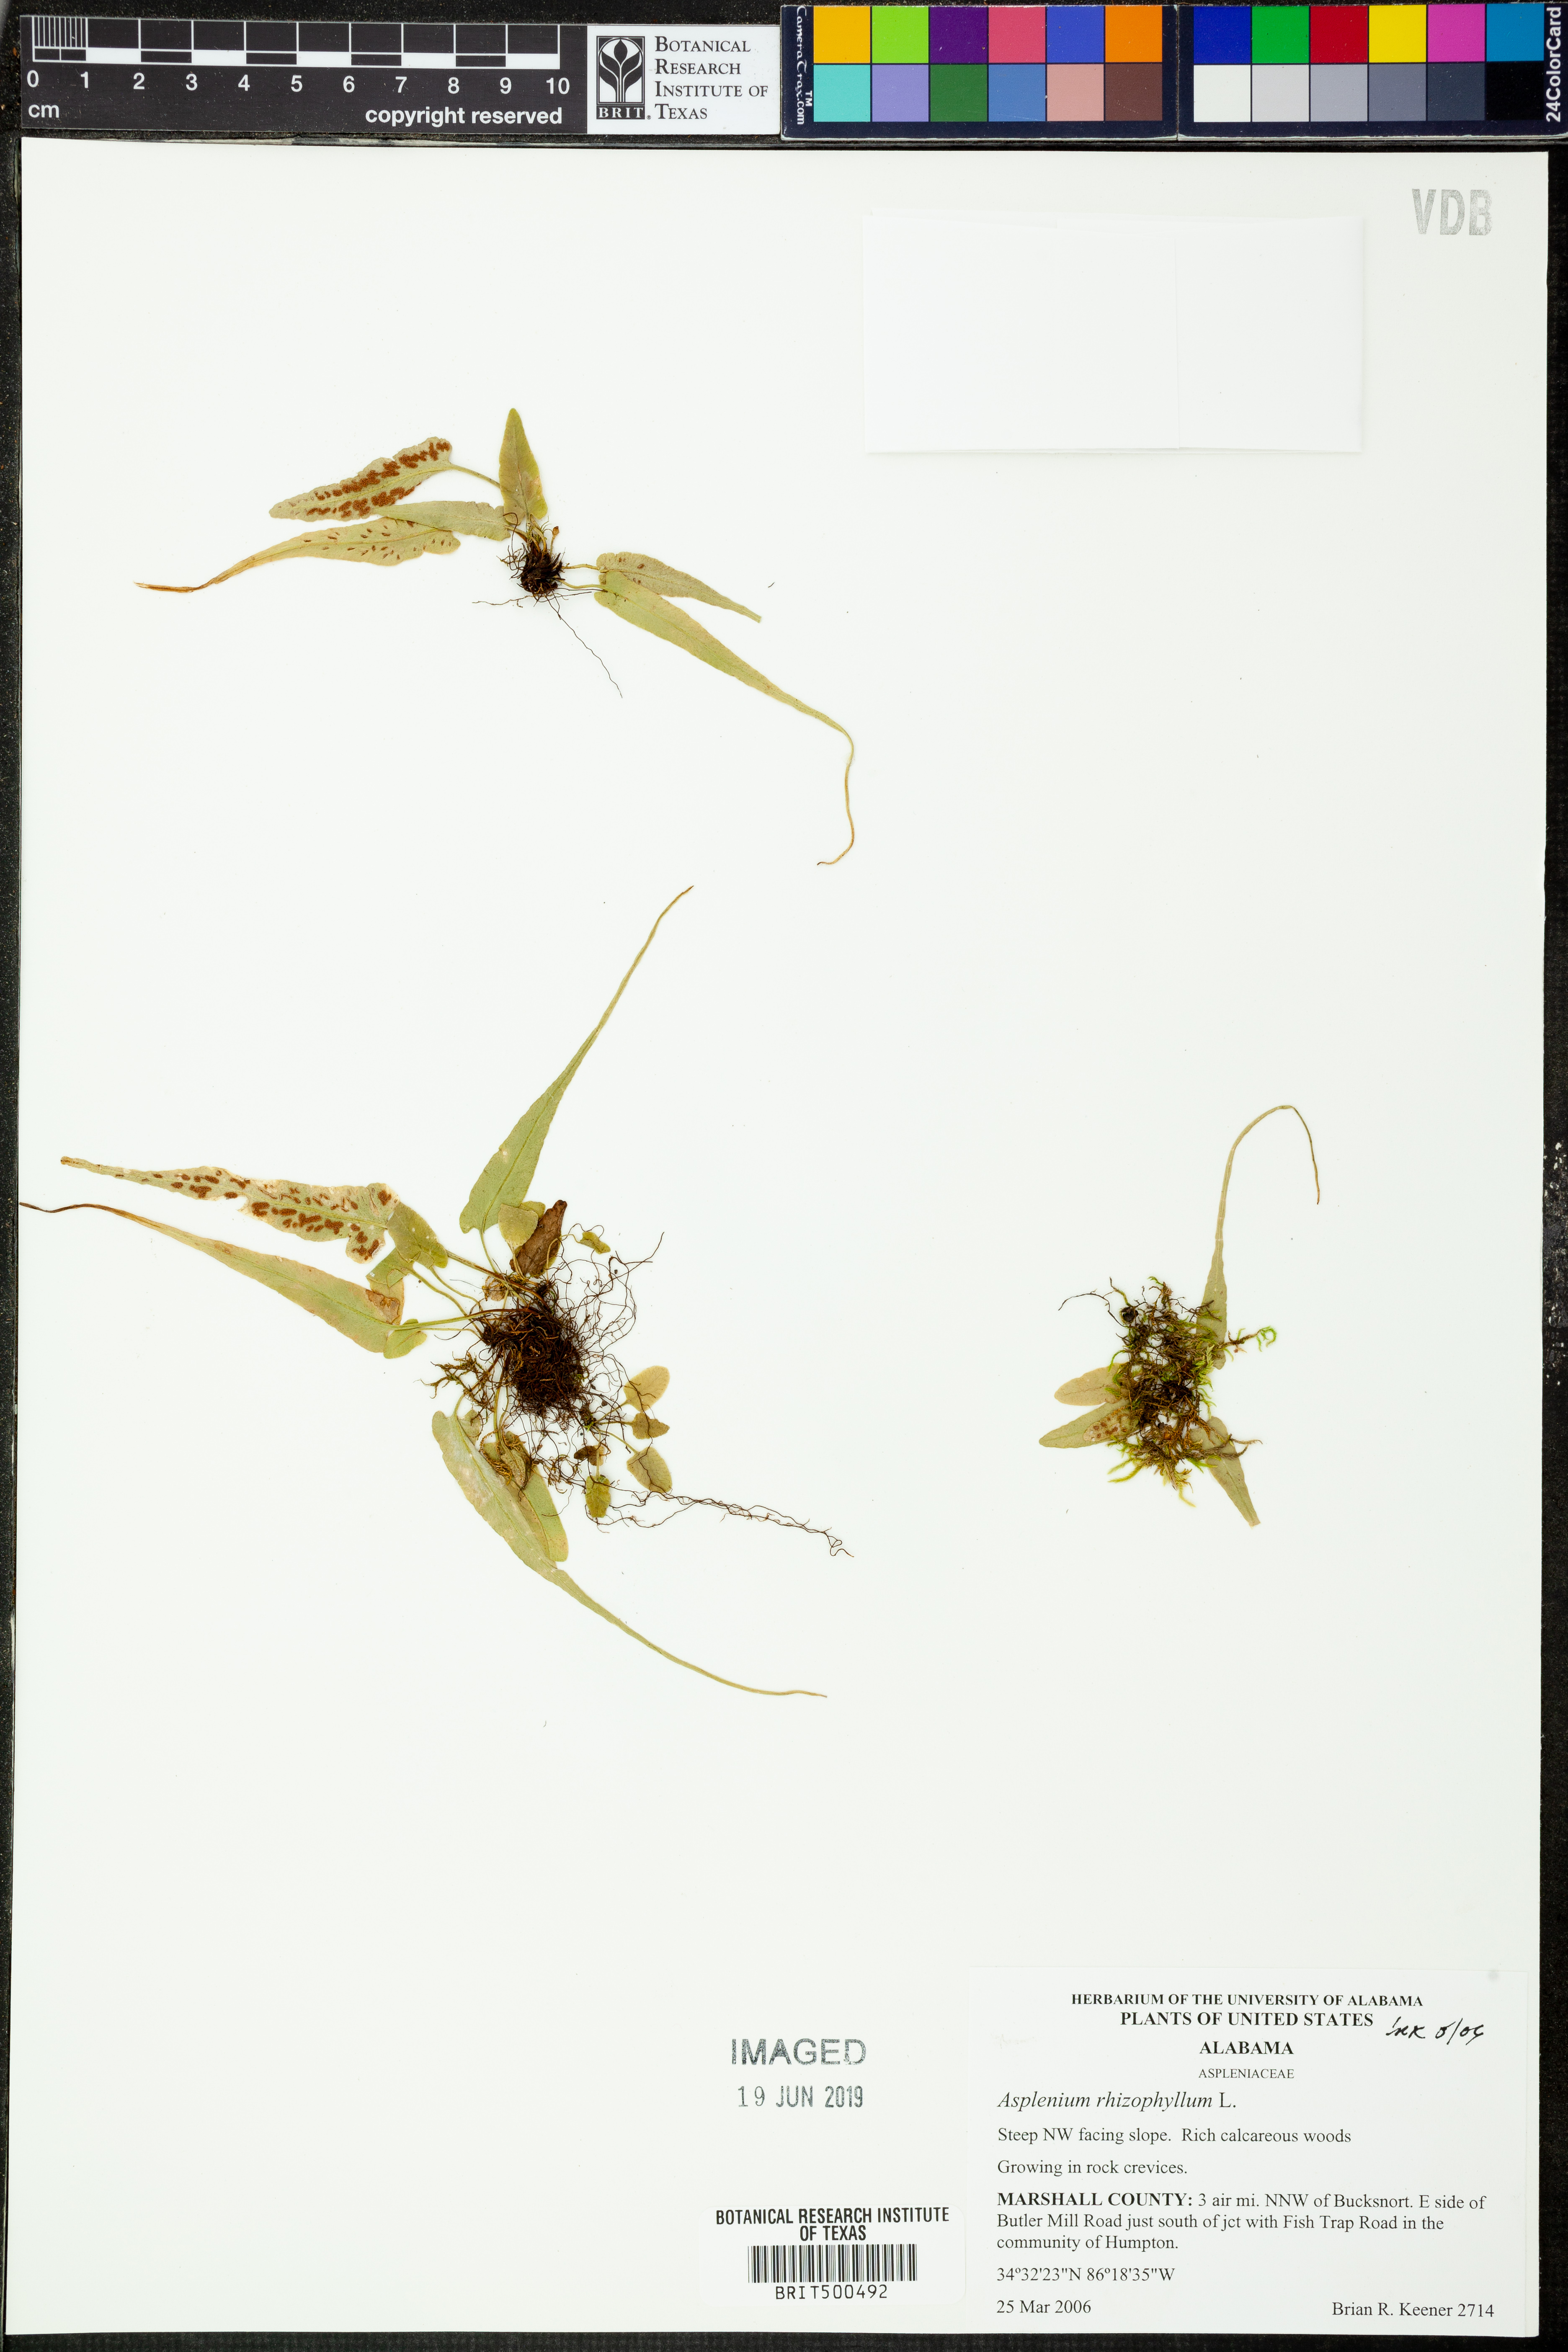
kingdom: Plantae
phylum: Tracheophyta
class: Polypodiopsida
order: Polypodiales
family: Aspleniaceae
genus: Asplenium
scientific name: Asplenium rhizophyllum
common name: Walking fern
